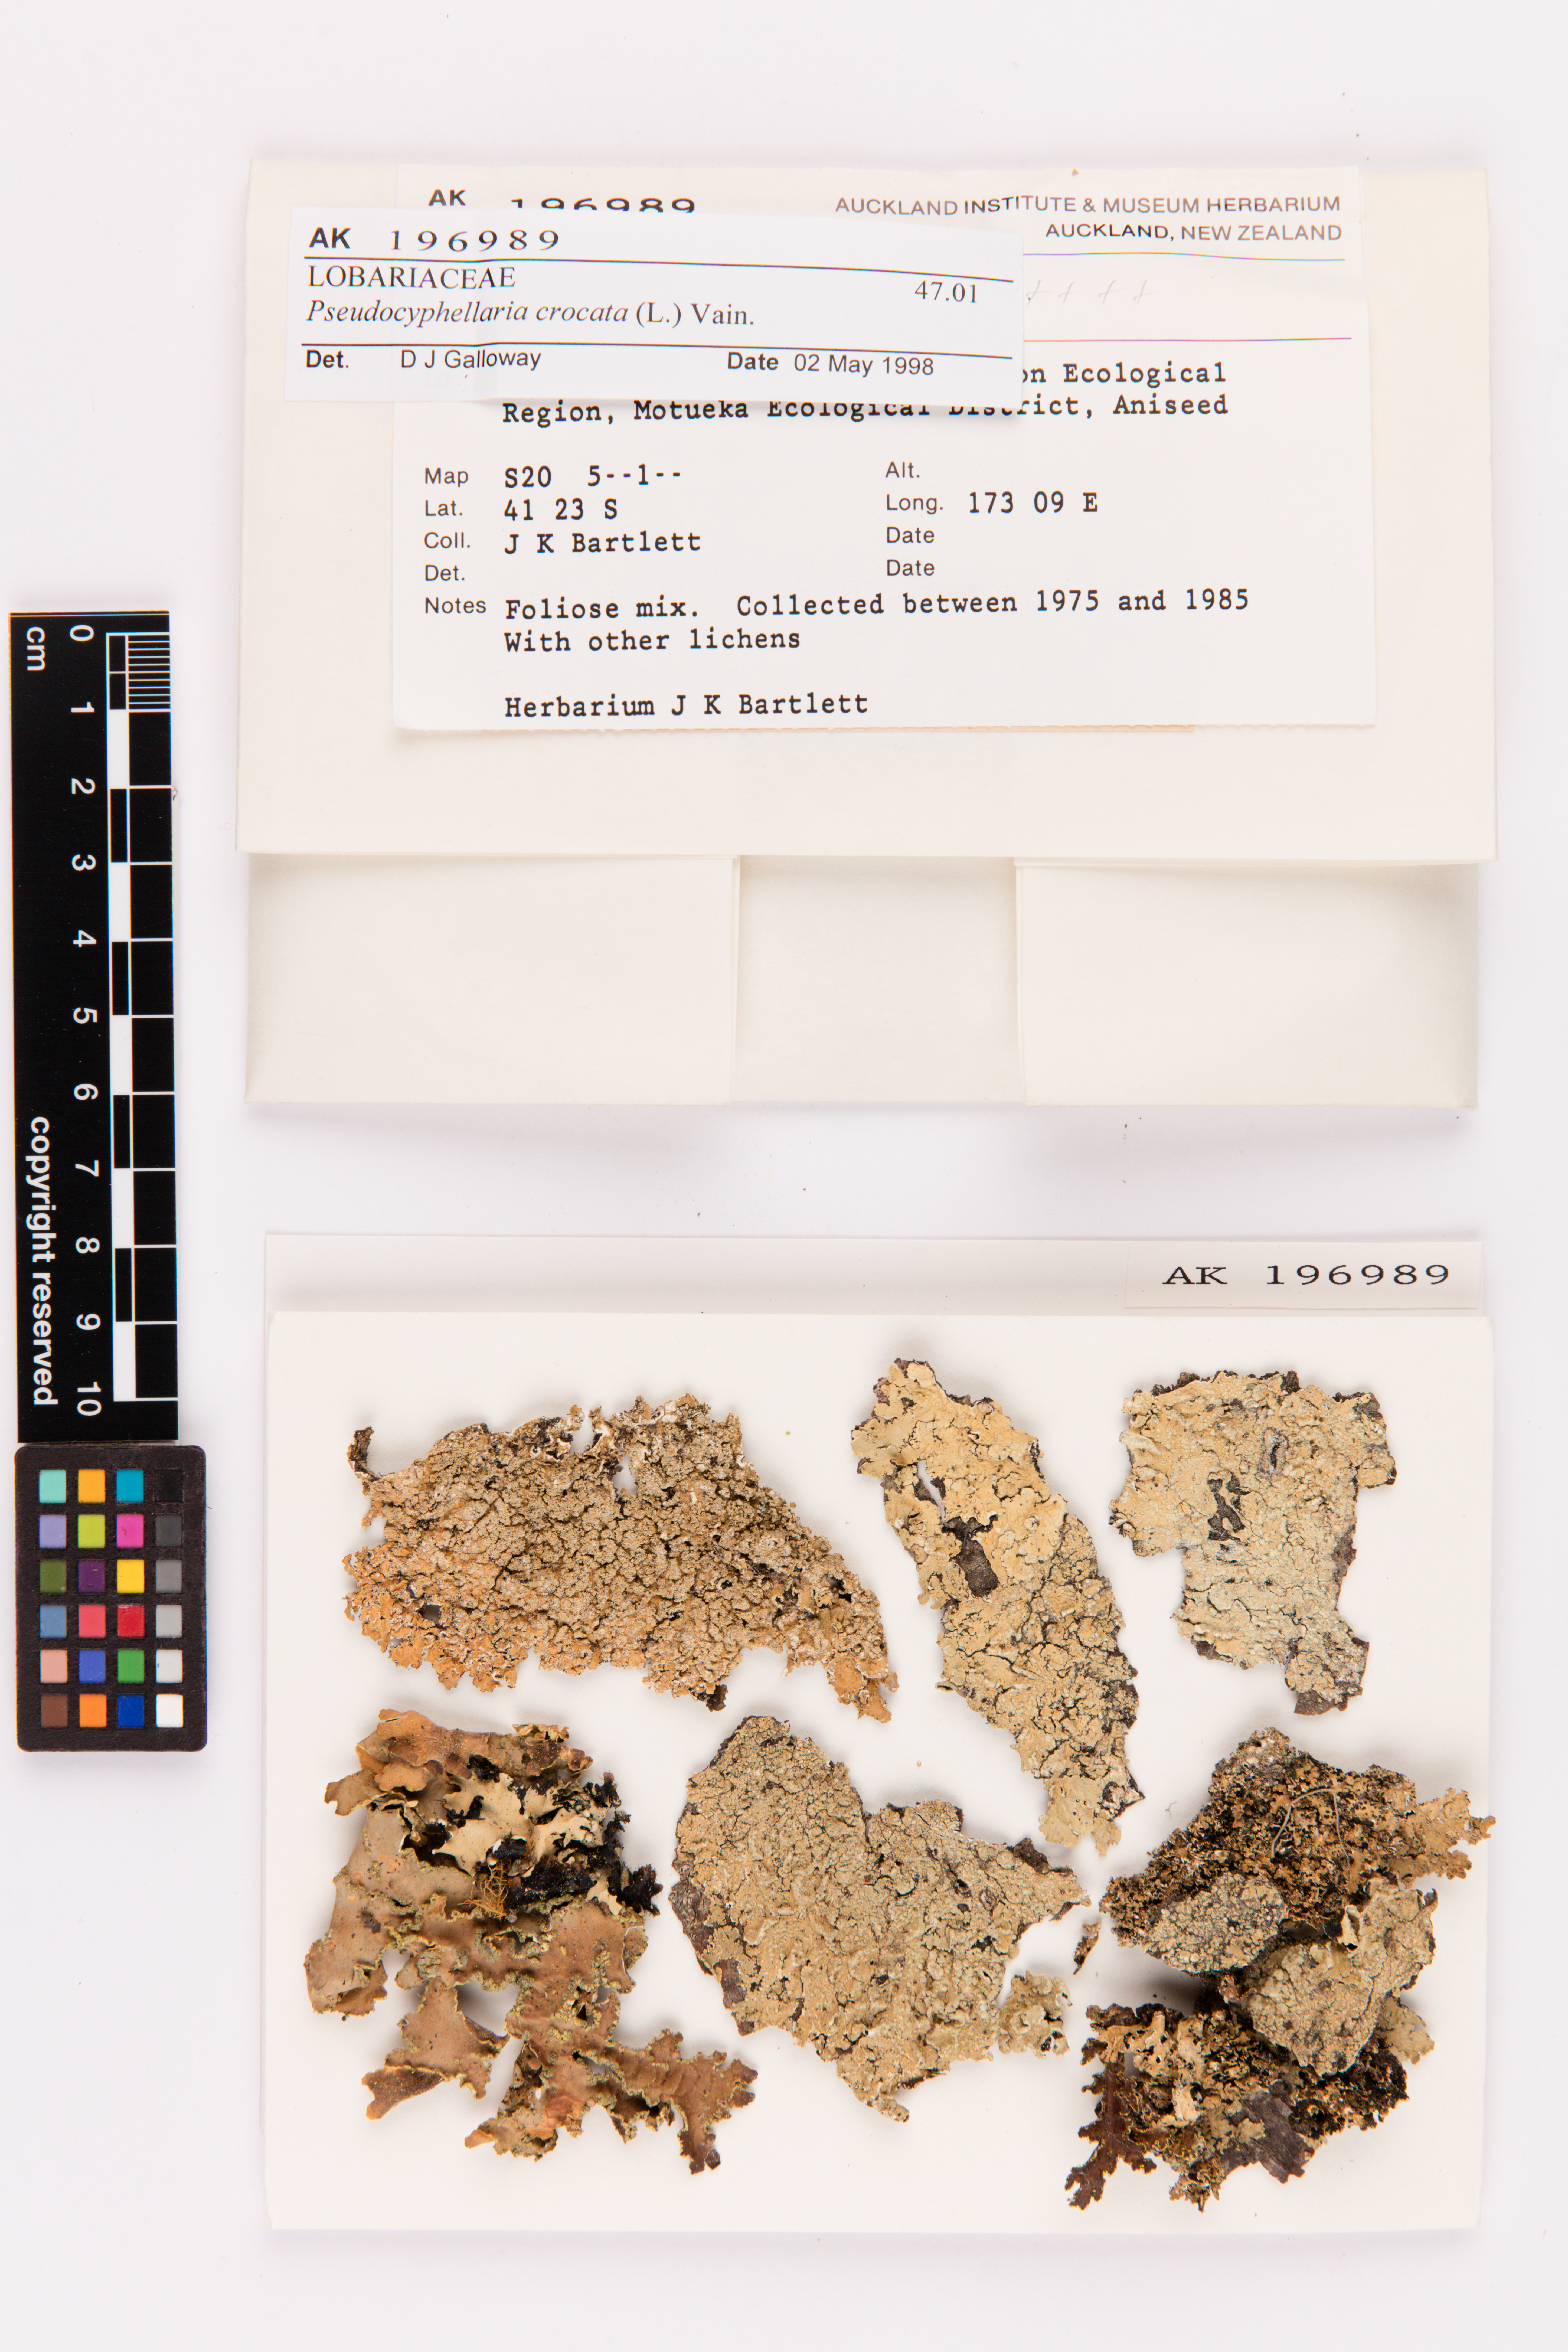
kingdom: Fungi
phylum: Ascomycota
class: Lecanoromycetes
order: Peltigerales
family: Lobariaceae
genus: Pseudocyphellaria
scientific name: Pseudocyphellaria crocata
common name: Golden specklebelly
